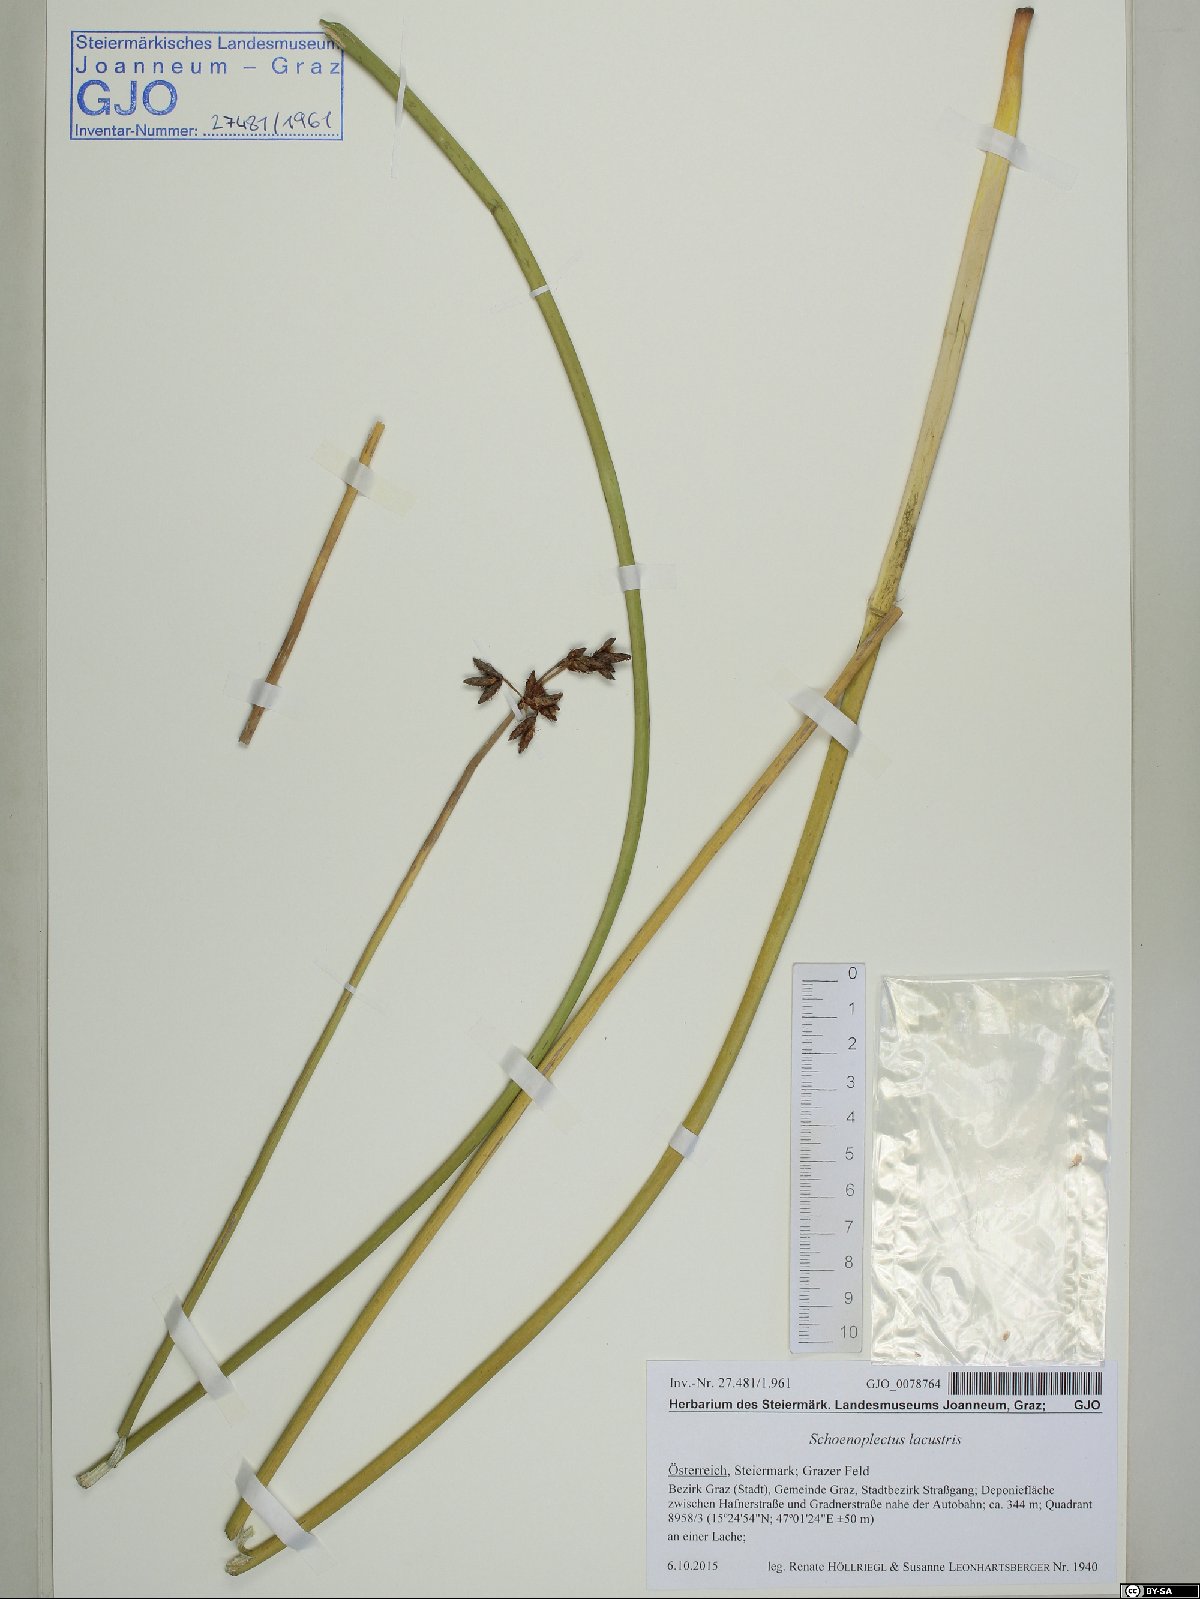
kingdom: Plantae
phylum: Tracheophyta
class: Liliopsida
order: Poales
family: Cyperaceae
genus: Schoenoplectus
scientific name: Schoenoplectus lacustris
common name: Common club-rush
